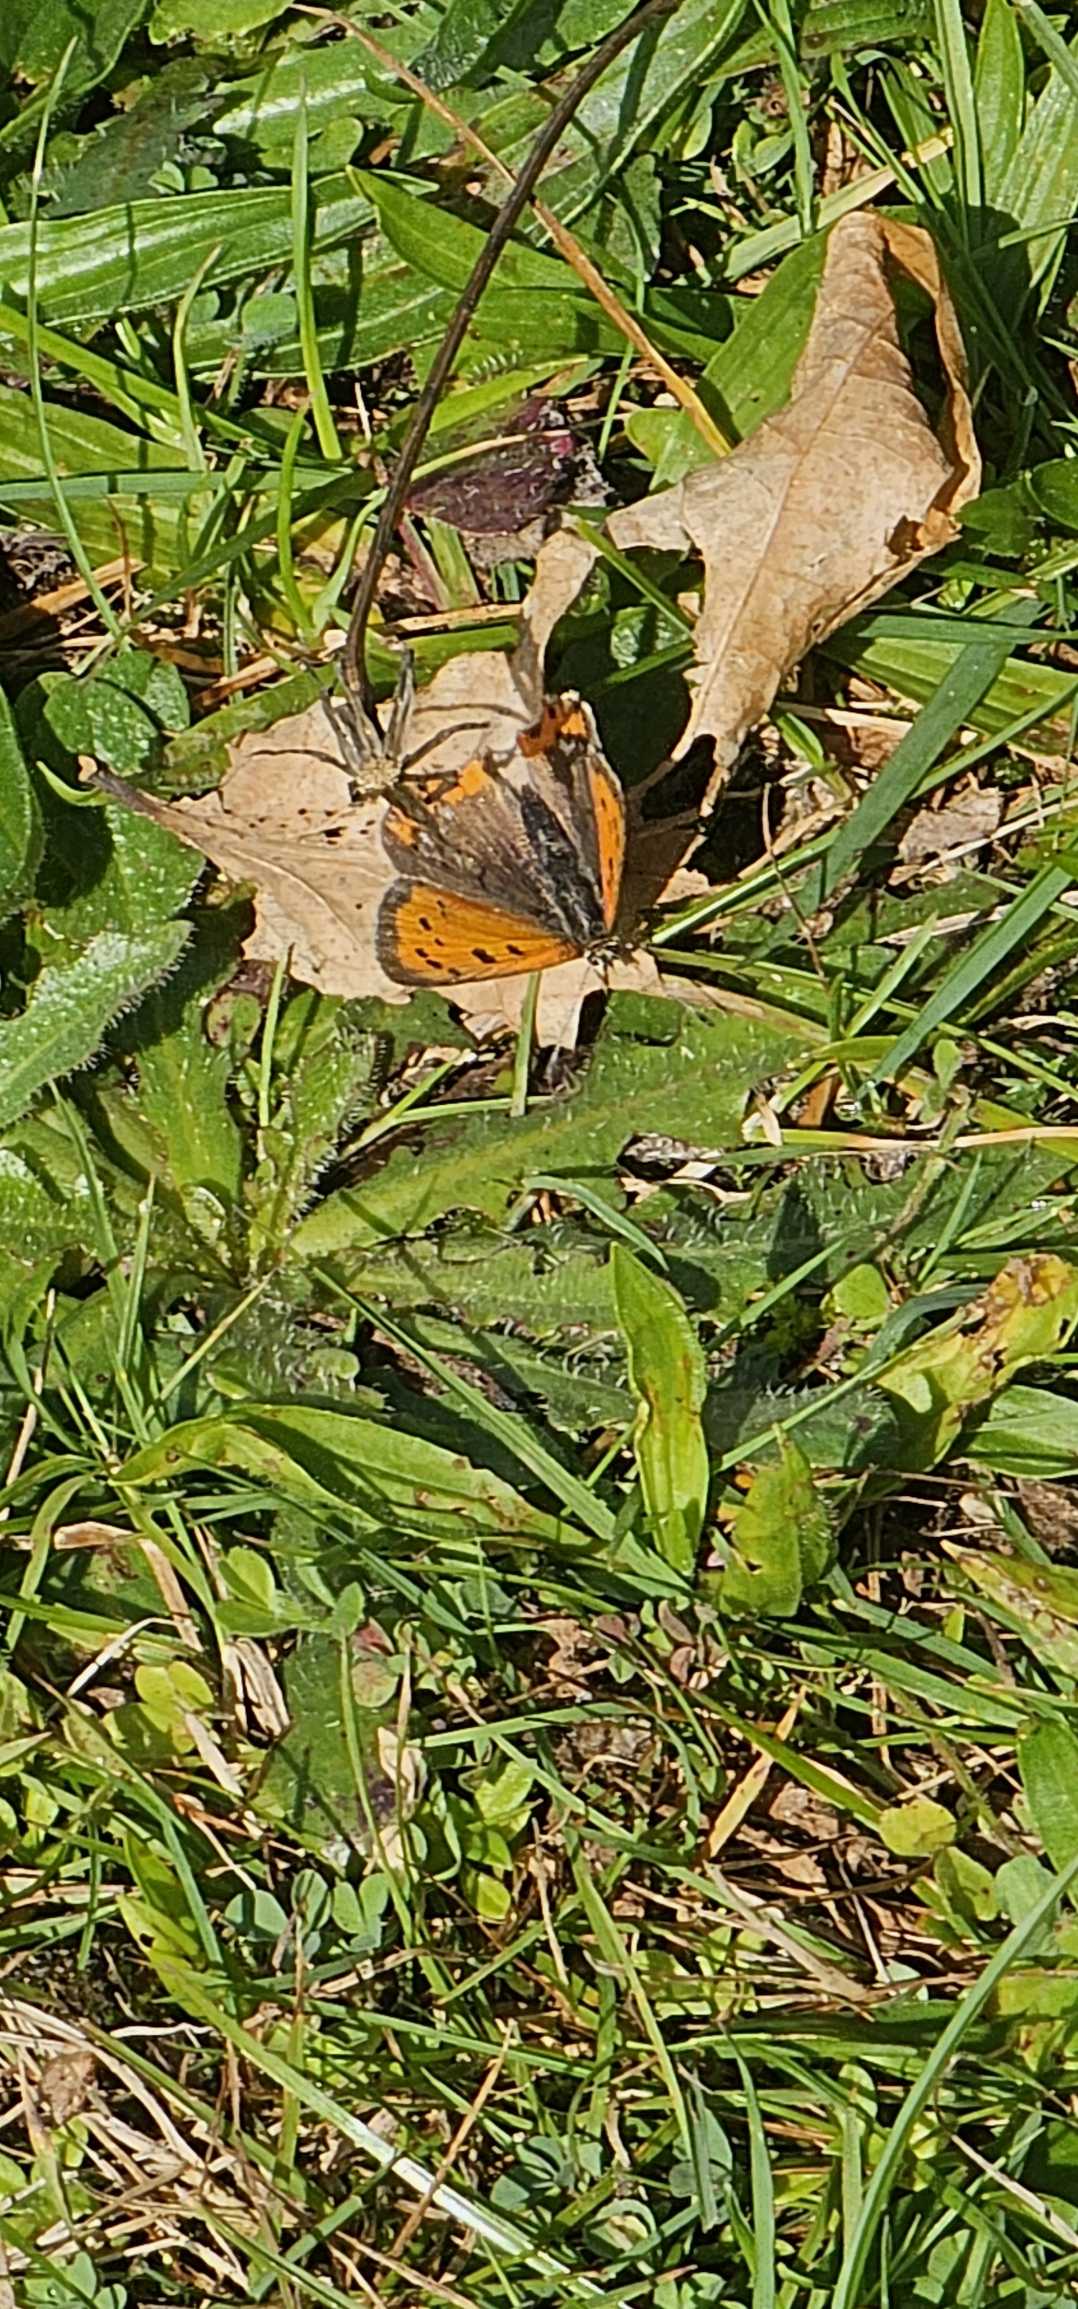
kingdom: Animalia
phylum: Arthropoda
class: Insecta
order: Lepidoptera
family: Lycaenidae
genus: Lycaena
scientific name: Lycaena phlaeas
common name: Lille ildfugl
